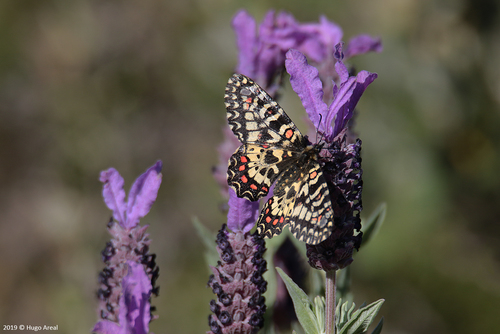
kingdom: Animalia
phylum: Arthropoda
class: Insecta
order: Lepidoptera
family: Papilionidae
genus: Zerynthia
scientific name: Zerynthia rumina
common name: Spanish festoon
